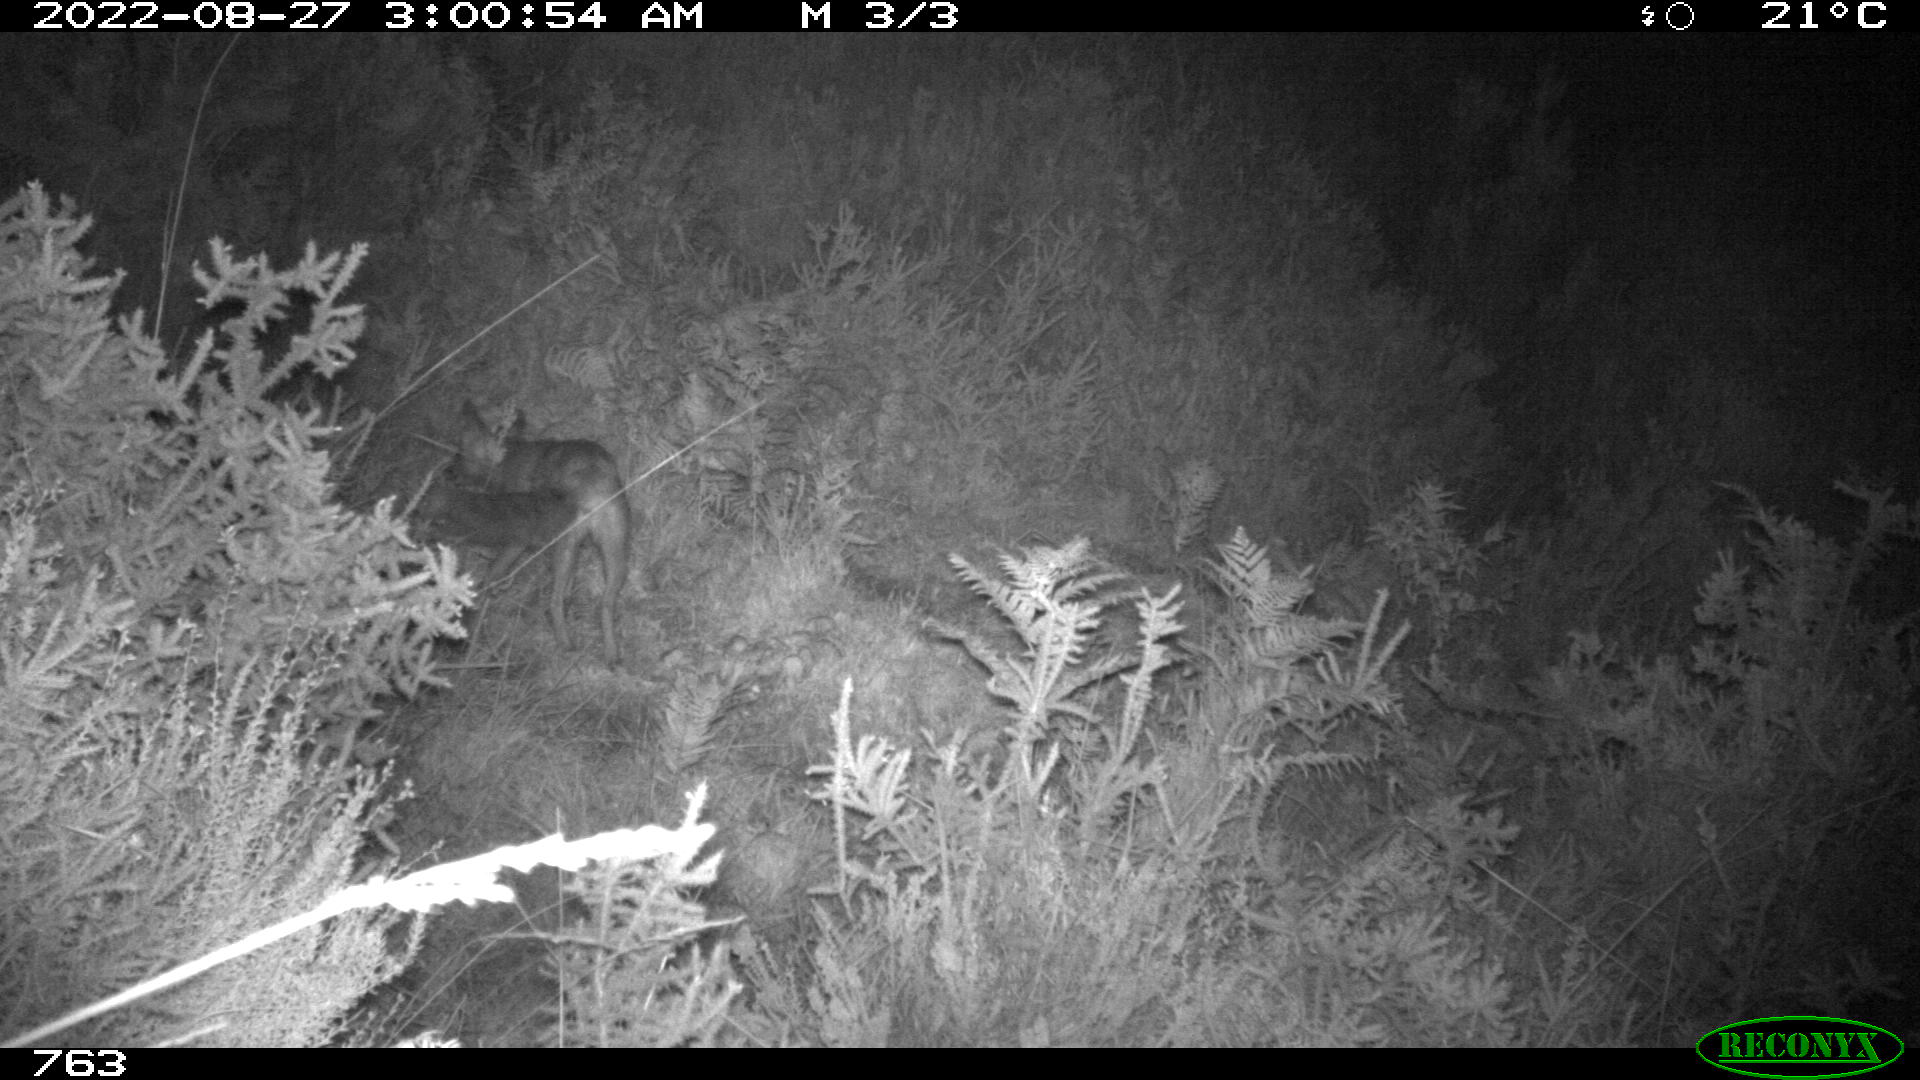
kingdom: Animalia
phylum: Chordata
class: Mammalia
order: Carnivora
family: Canidae
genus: Vulpes
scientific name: Vulpes vulpes
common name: Red fox
